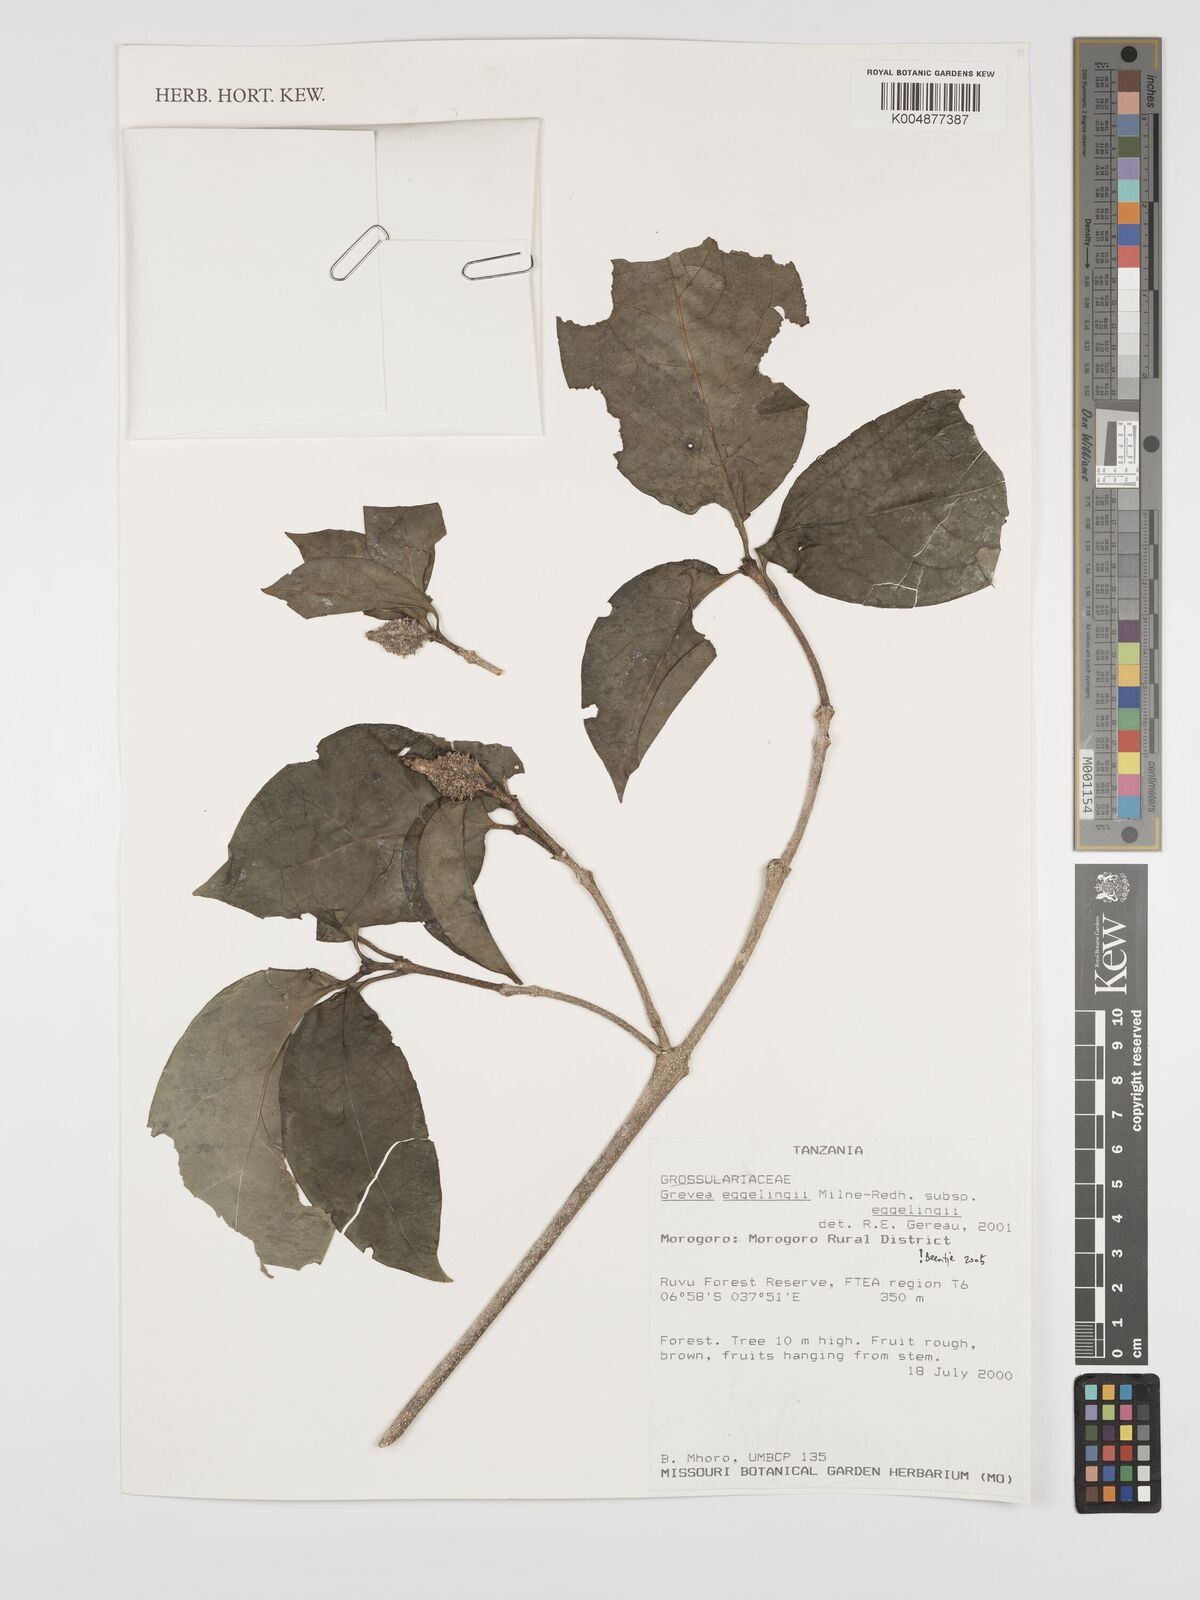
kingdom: Plantae
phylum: Tracheophyta
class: Magnoliopsida
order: Solanales
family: Montiniaceae
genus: Grevea
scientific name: Grevea eggelingii
